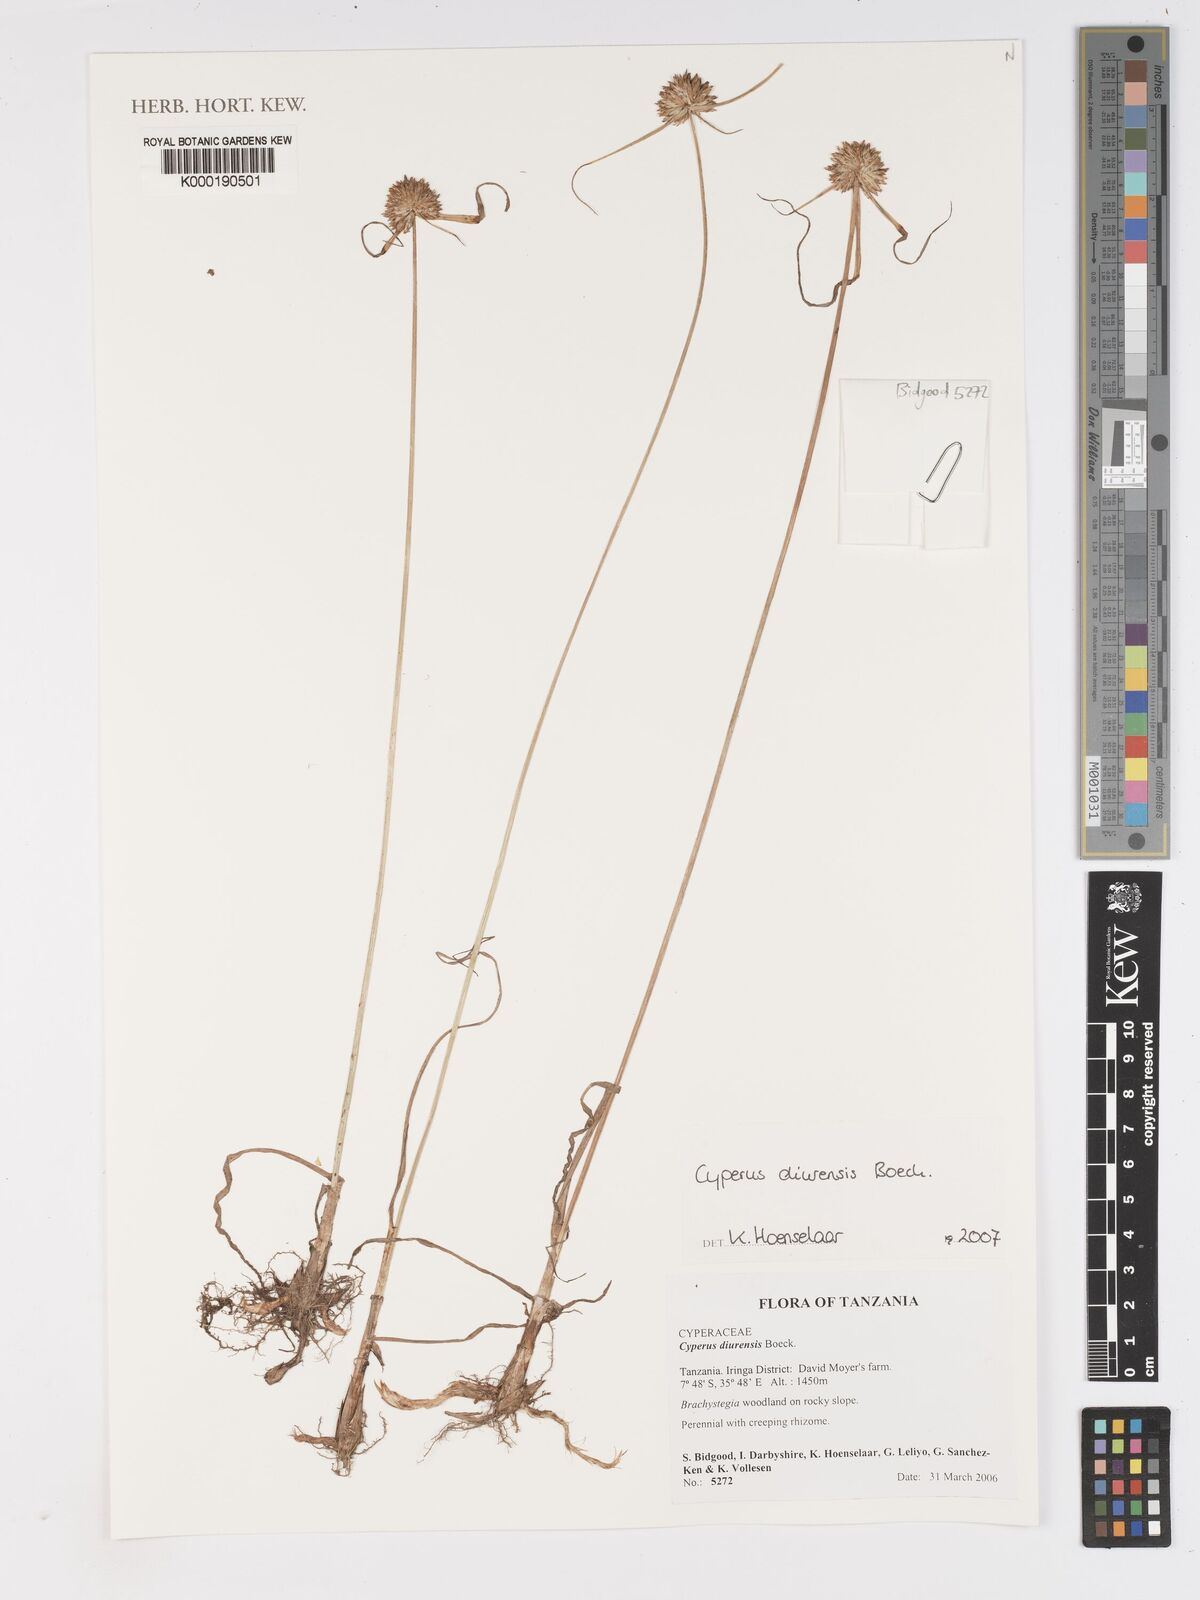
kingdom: Plantae
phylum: Tracheophyta
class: Liliopsida
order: Poales
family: Cyperaceae
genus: Cyperus
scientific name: Cyperus diurensis
